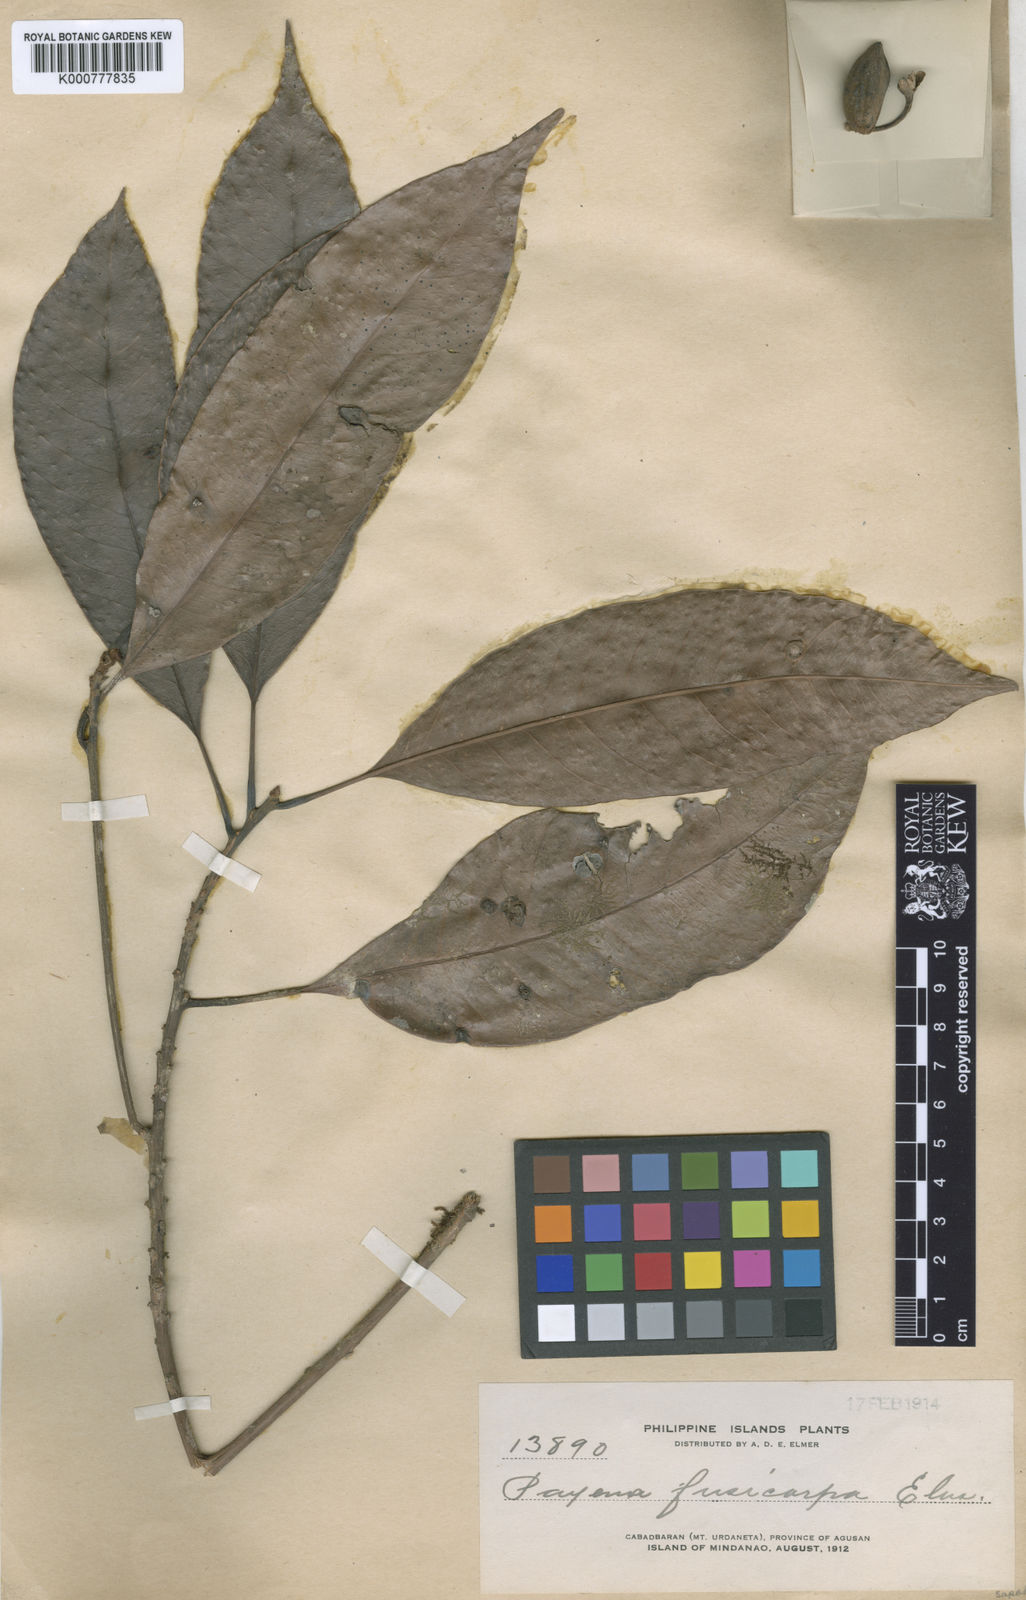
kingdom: Plantae
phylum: Tracheophyta
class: Magnoliopsida
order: Ericales
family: Sapotaceae
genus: Madhuca
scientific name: Madhuca burckiana
